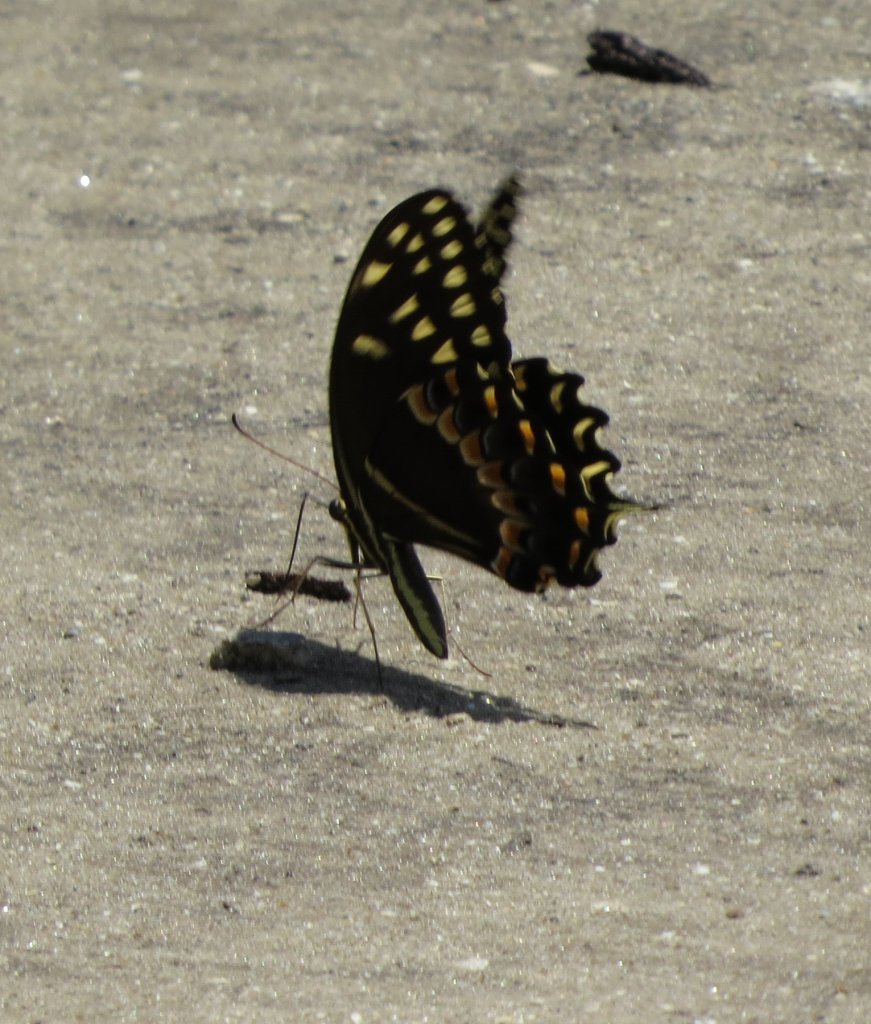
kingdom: Animalia
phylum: Arthropoda
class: Insecta
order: Lepidoptera
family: Papilionidae
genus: Pterourus
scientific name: Pterourus palamedes
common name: Palamedes Swallowtail
